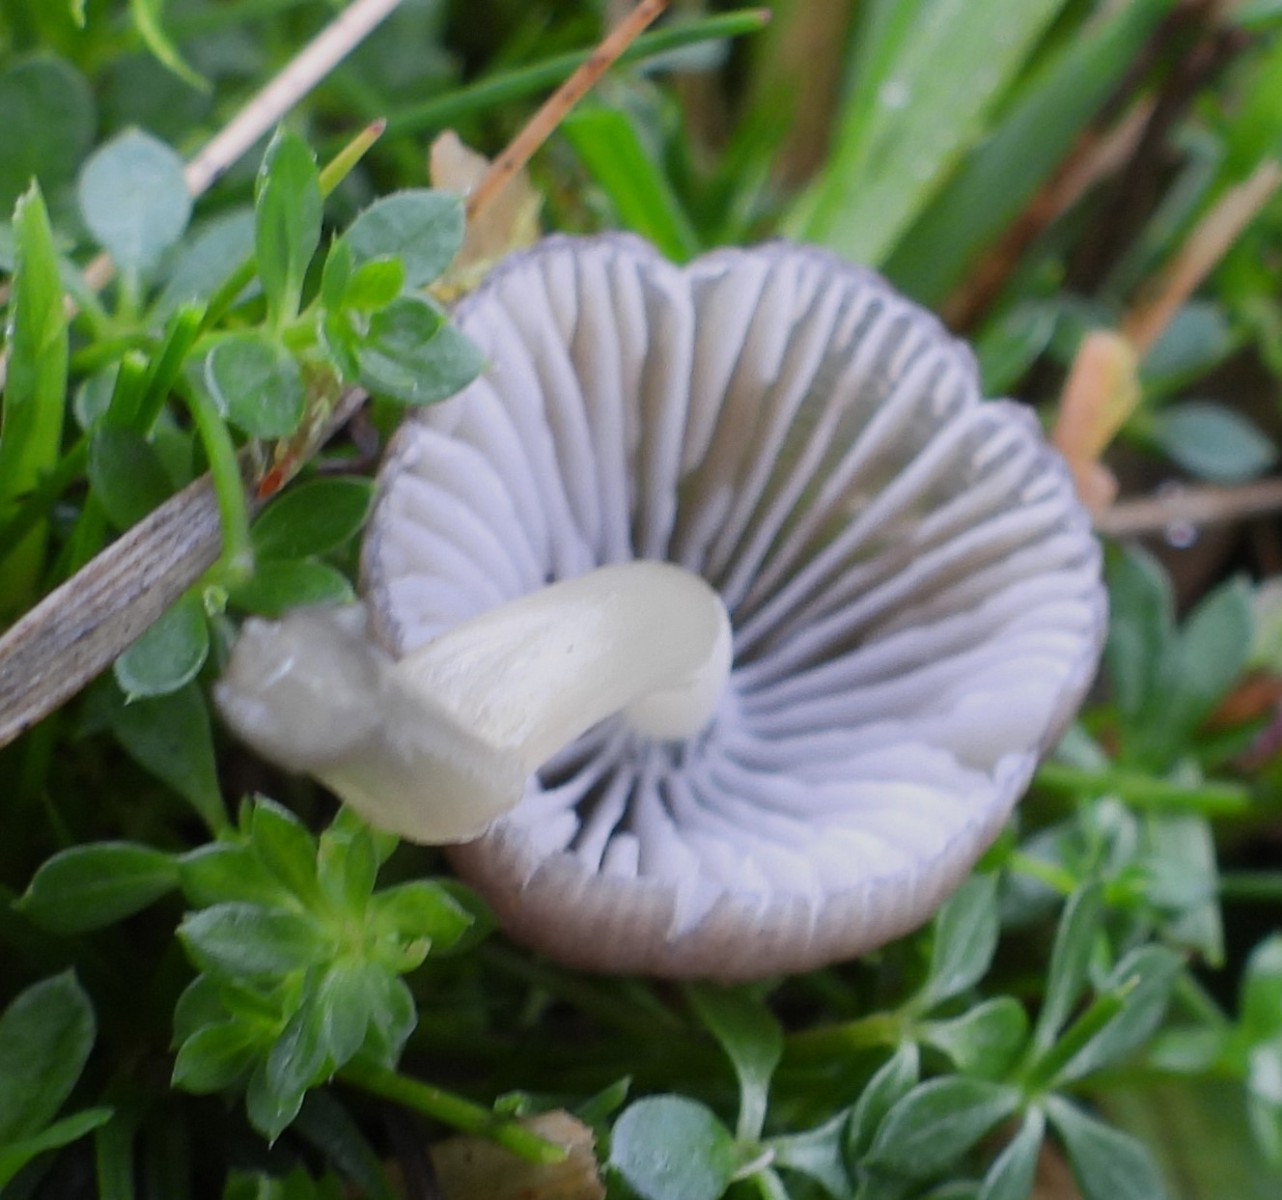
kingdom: Fungi
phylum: Basidiomycota
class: Agaricomycetes
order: Agaricales
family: Hygrophoraceae
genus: Gliophorus
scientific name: Gliophorus irrigatus
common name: slimet vokshat
